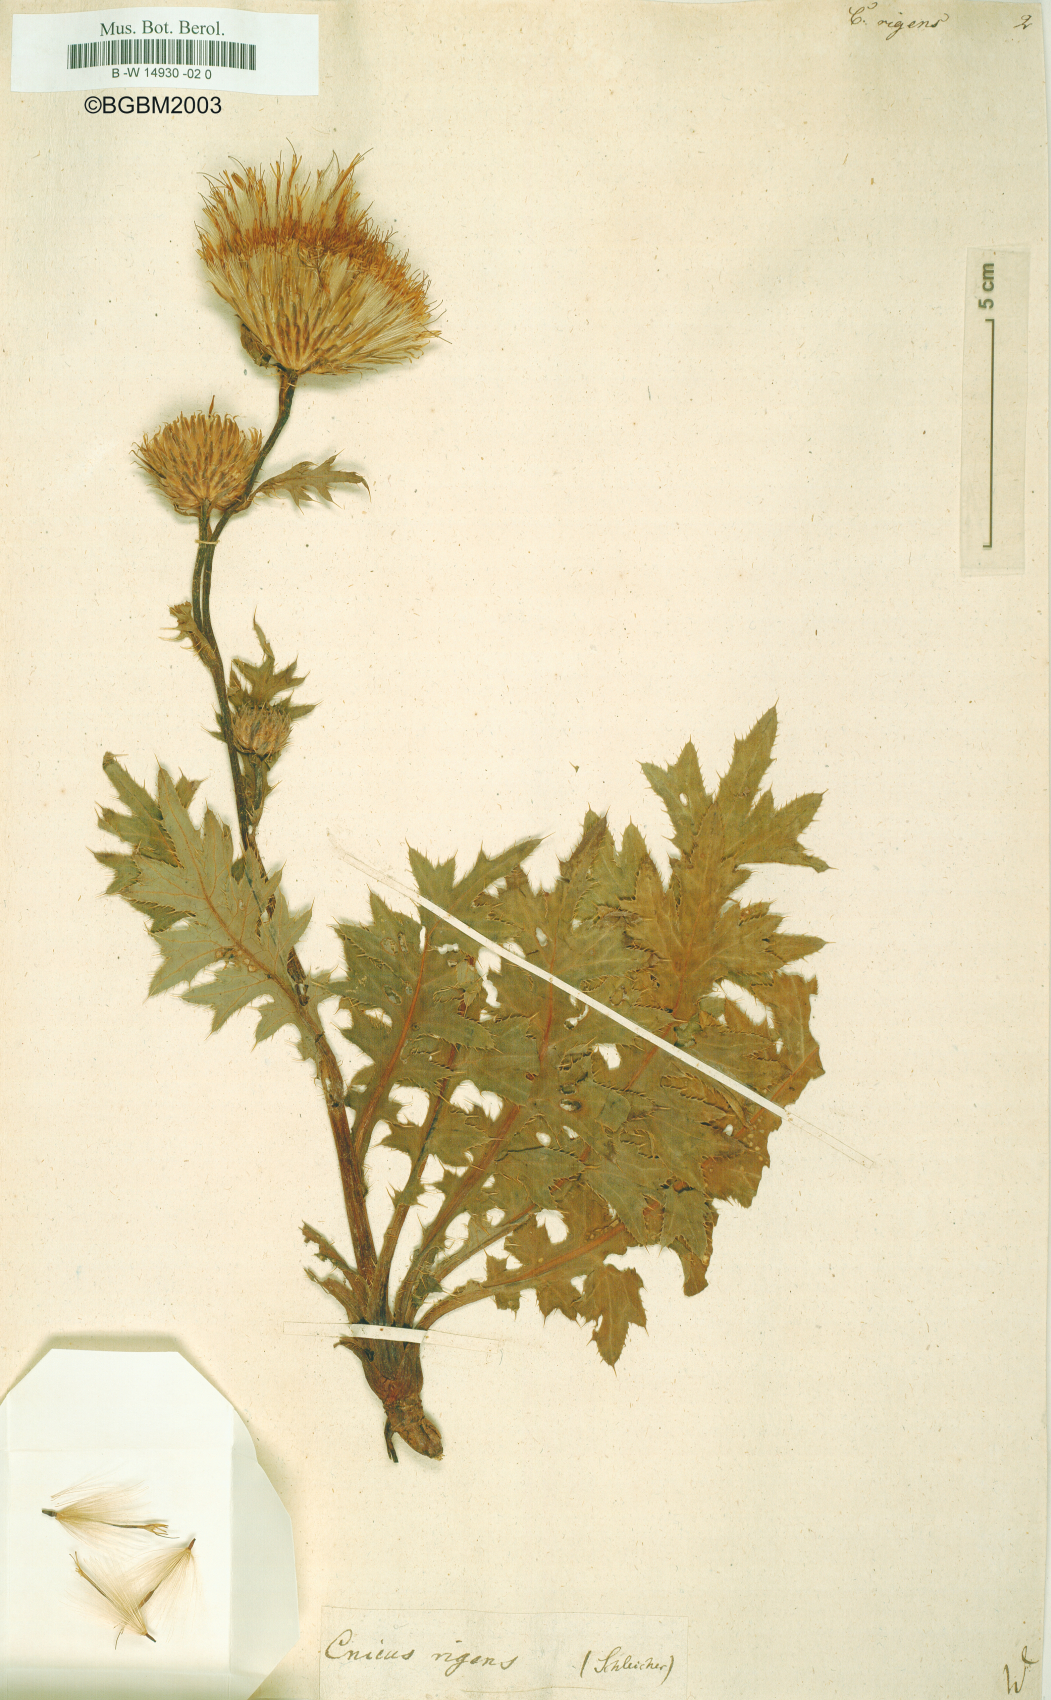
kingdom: Plantae
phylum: Tracheophyta
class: Magnoliopsida
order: Asterales
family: Asteraceae
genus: Cirsium
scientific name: Cirsium
